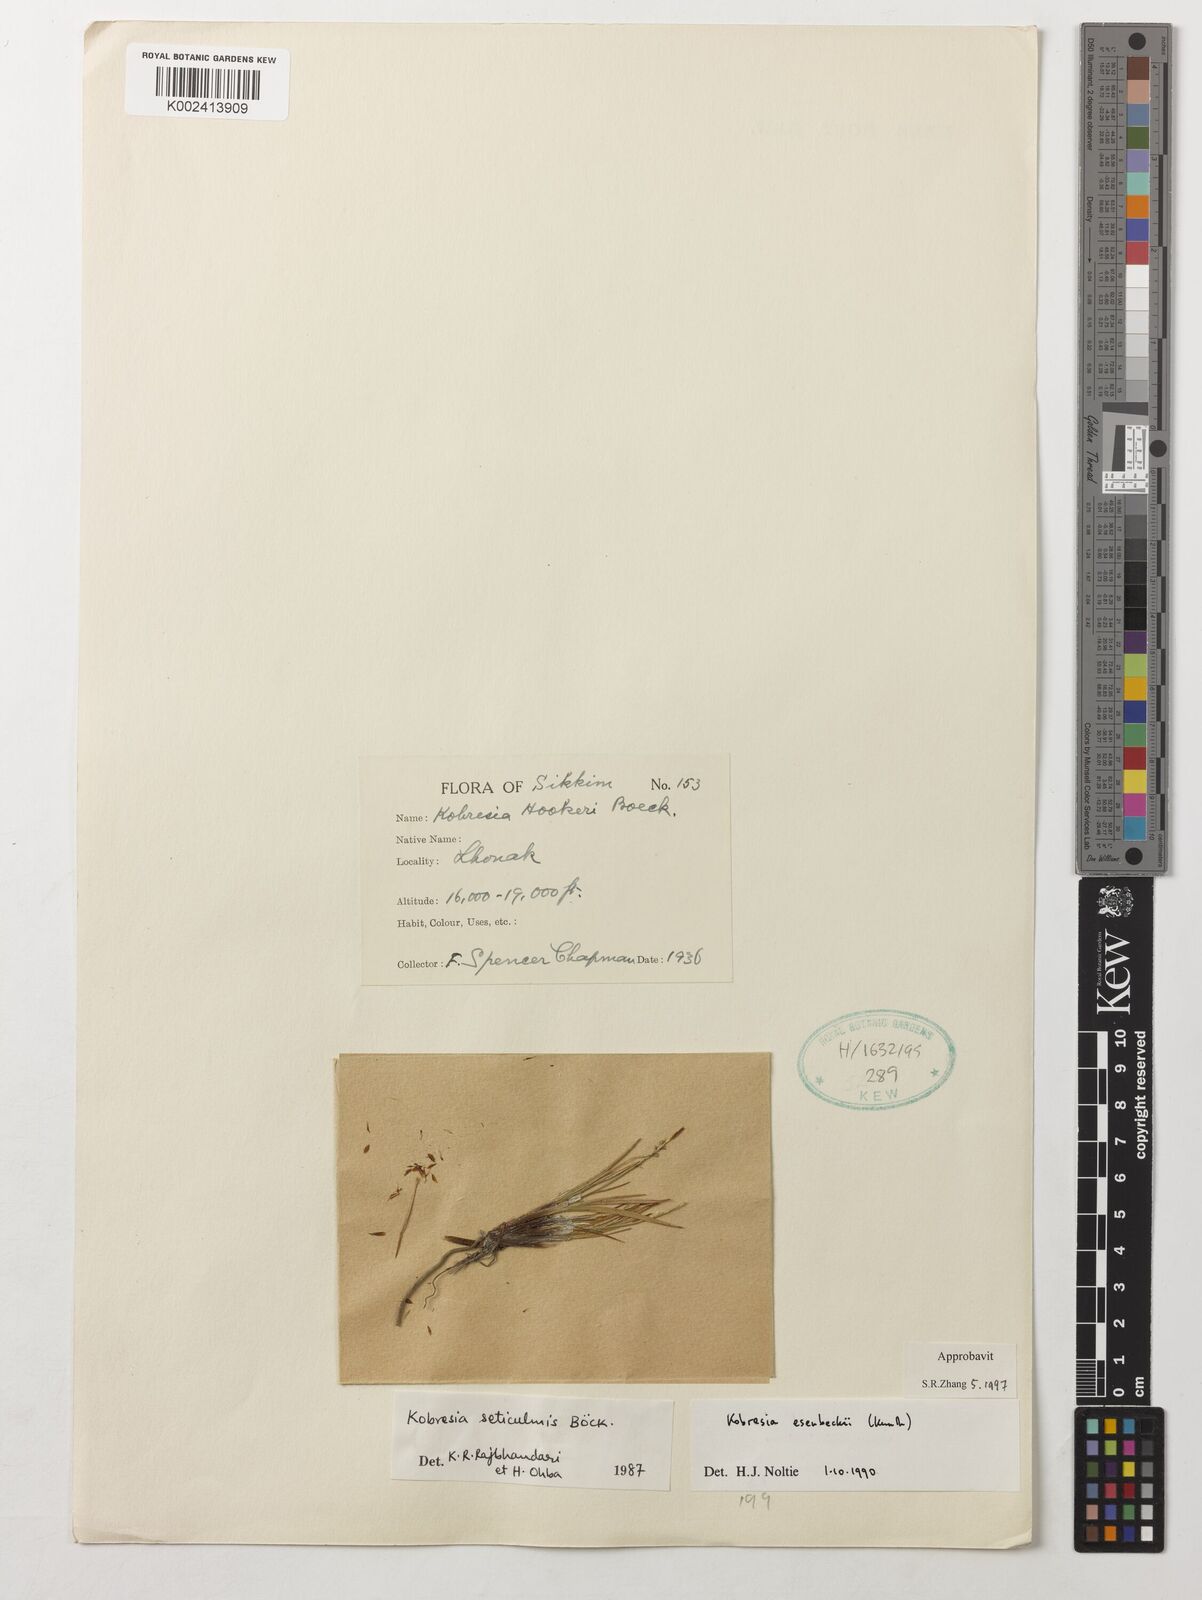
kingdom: Plantae
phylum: Tracheophyta
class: Liliopsida
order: Poales
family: Cyperaceae
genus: Carex
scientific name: Carex esenbeckii
